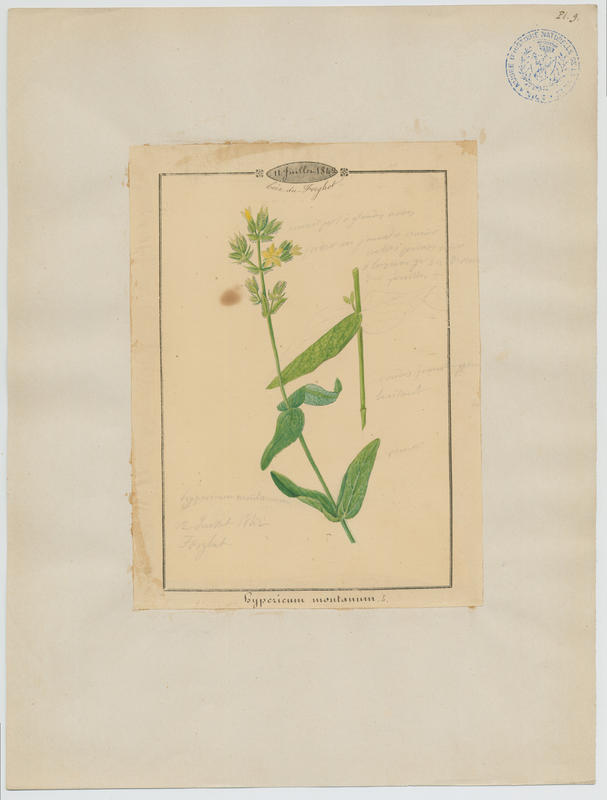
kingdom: Plantae
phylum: Tracheophyta
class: Magnoliopsida
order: Malpighiales
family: Hypericaceae
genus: Hypericum
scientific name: Hypericum montanum
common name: Pale st. john's-wort
